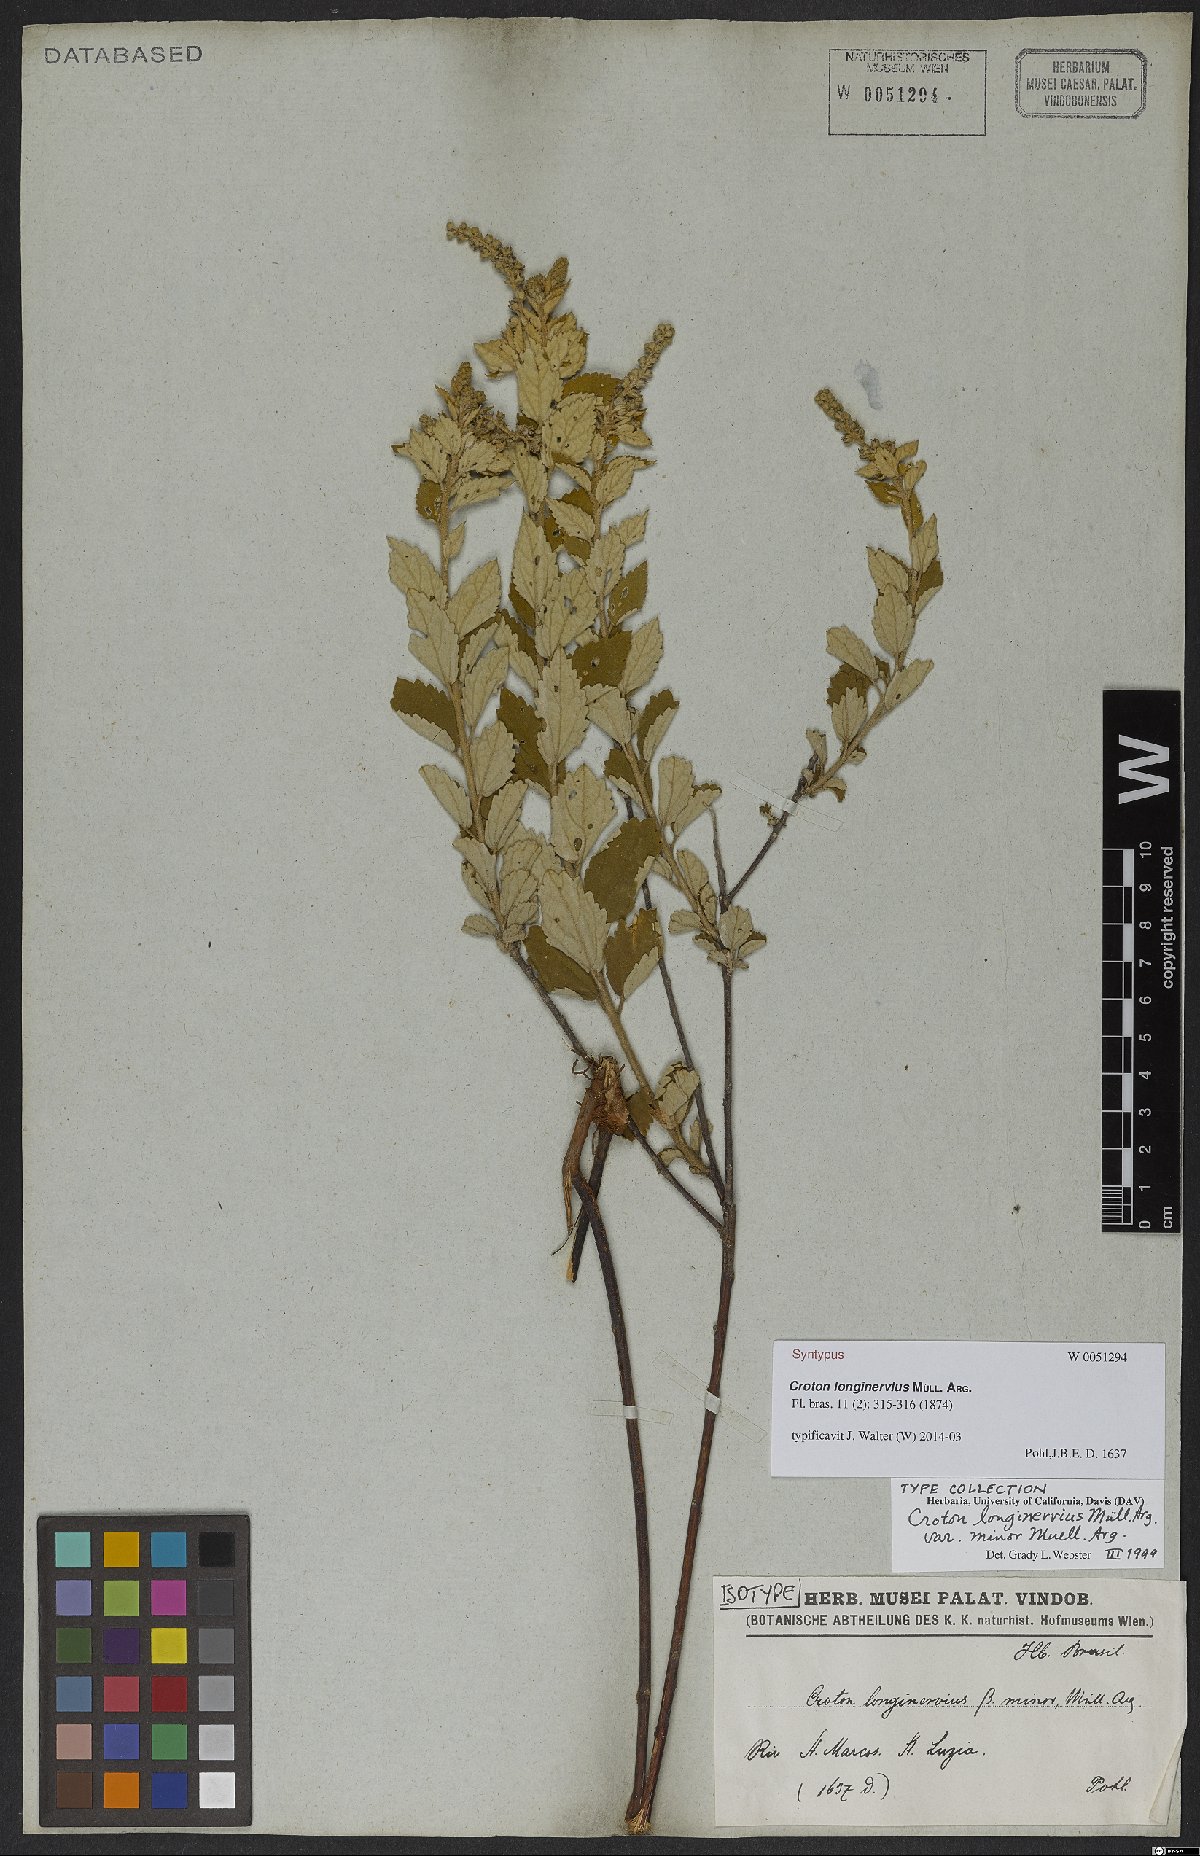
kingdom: Plantae
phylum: Tracheophyta
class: Magnoliopsida
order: Malpighiales
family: Euphorbiaceae
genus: Croton
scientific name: Croton abaitensis
